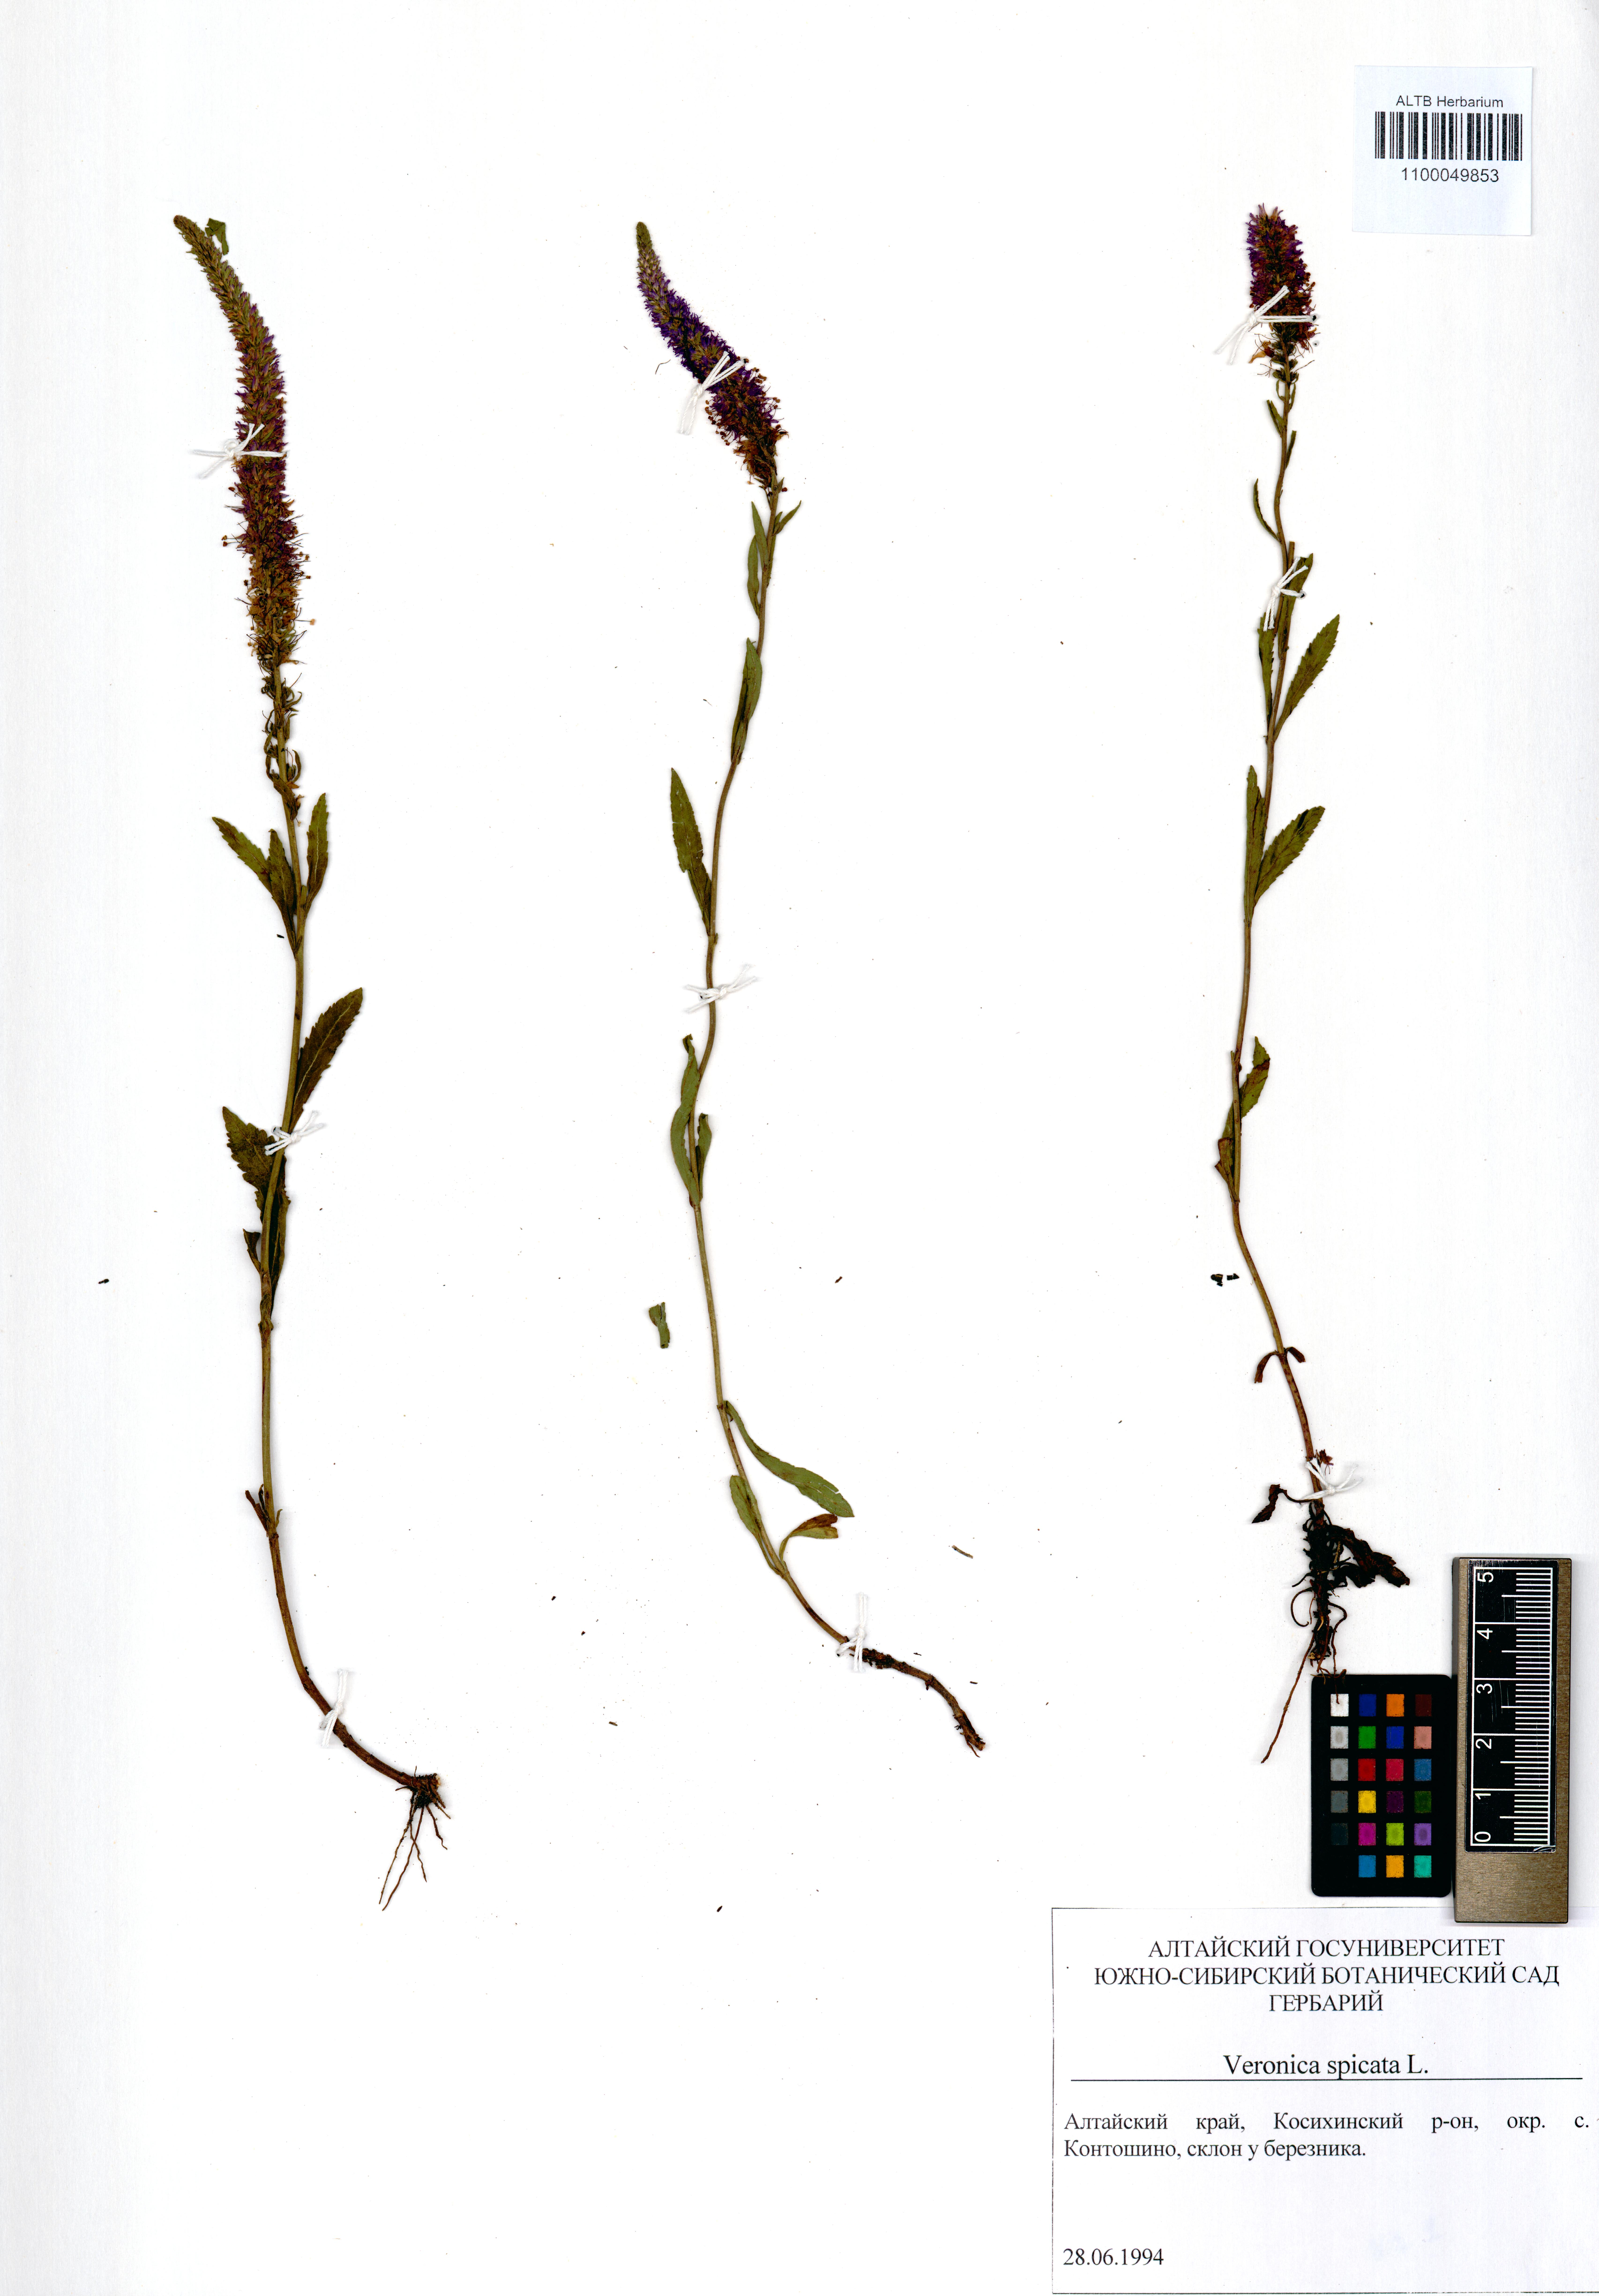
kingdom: Plantae
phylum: Tracheophyta
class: Magnoliopsida
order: Lamiales
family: Plantaginaceae
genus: Veronica
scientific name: Veronica spicata
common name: Spiked speedwell
